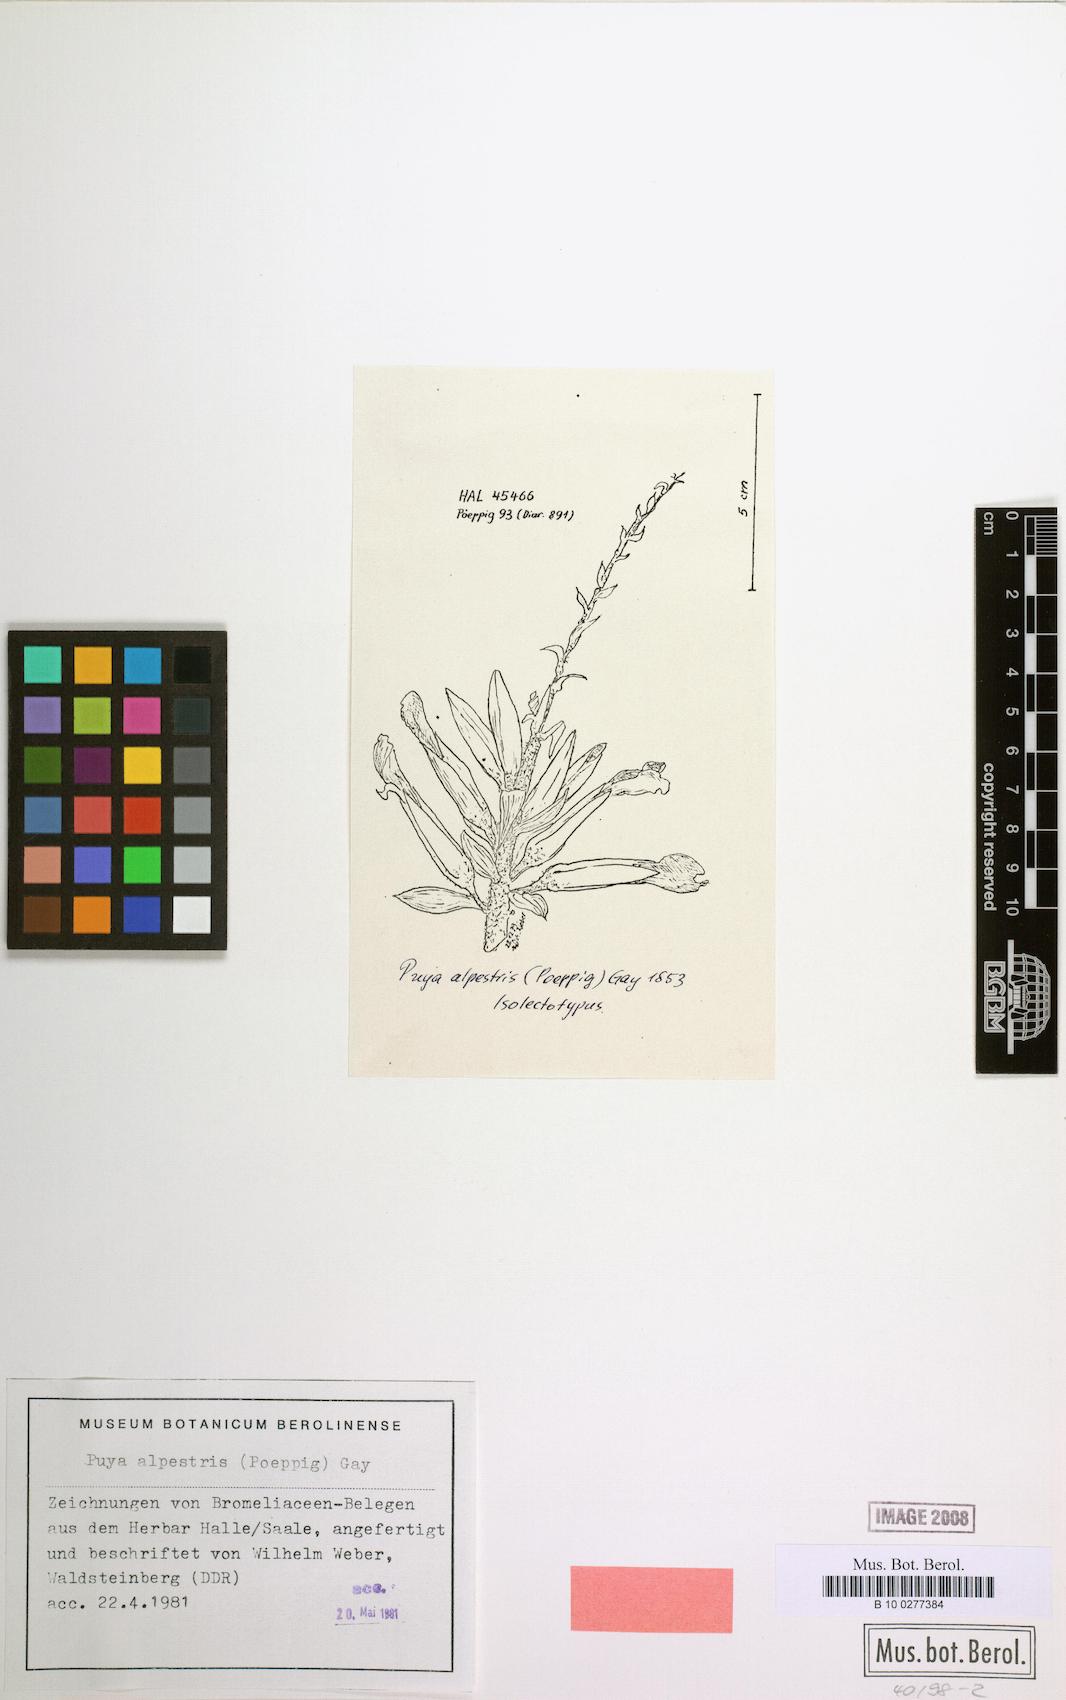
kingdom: Plantae
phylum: Tracheophyta
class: Liliopsida
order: Poales
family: Bromeliaceae
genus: Puya
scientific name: Puya alpestris
